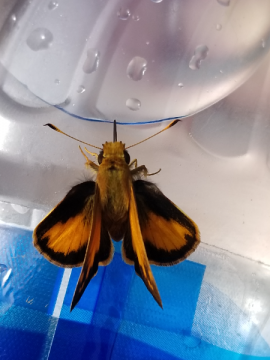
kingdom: Animalia
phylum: Arthropoda
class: Insecta
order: Lepidoptera
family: Hesperiidae
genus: Lon
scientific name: Lon zabulon
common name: Zabulon Skipper
